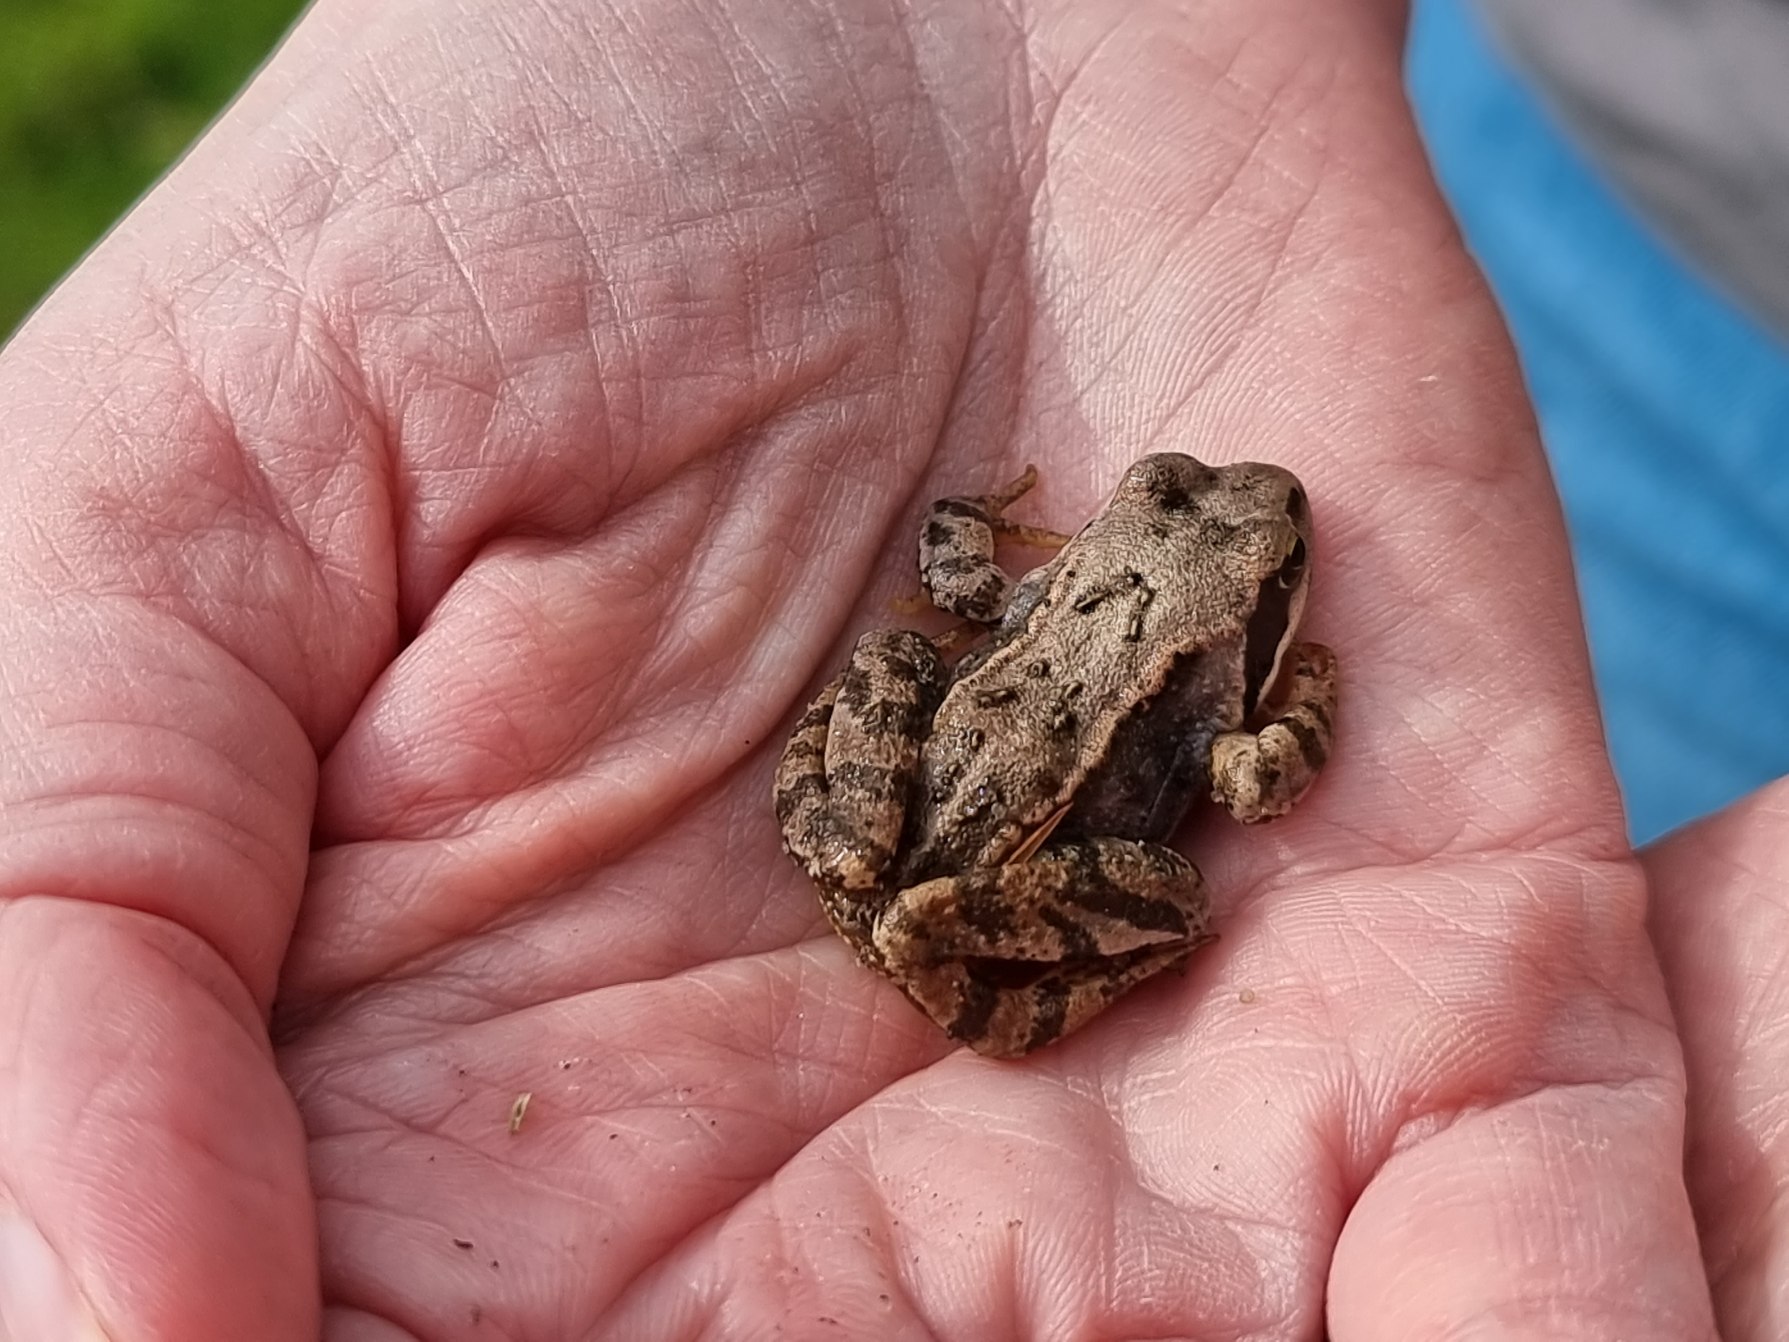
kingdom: Animalia
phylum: Chordata
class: Amphibia
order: Anura
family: Ranidae
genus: Rana
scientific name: Rana temporaria
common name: Butsnudet frø
